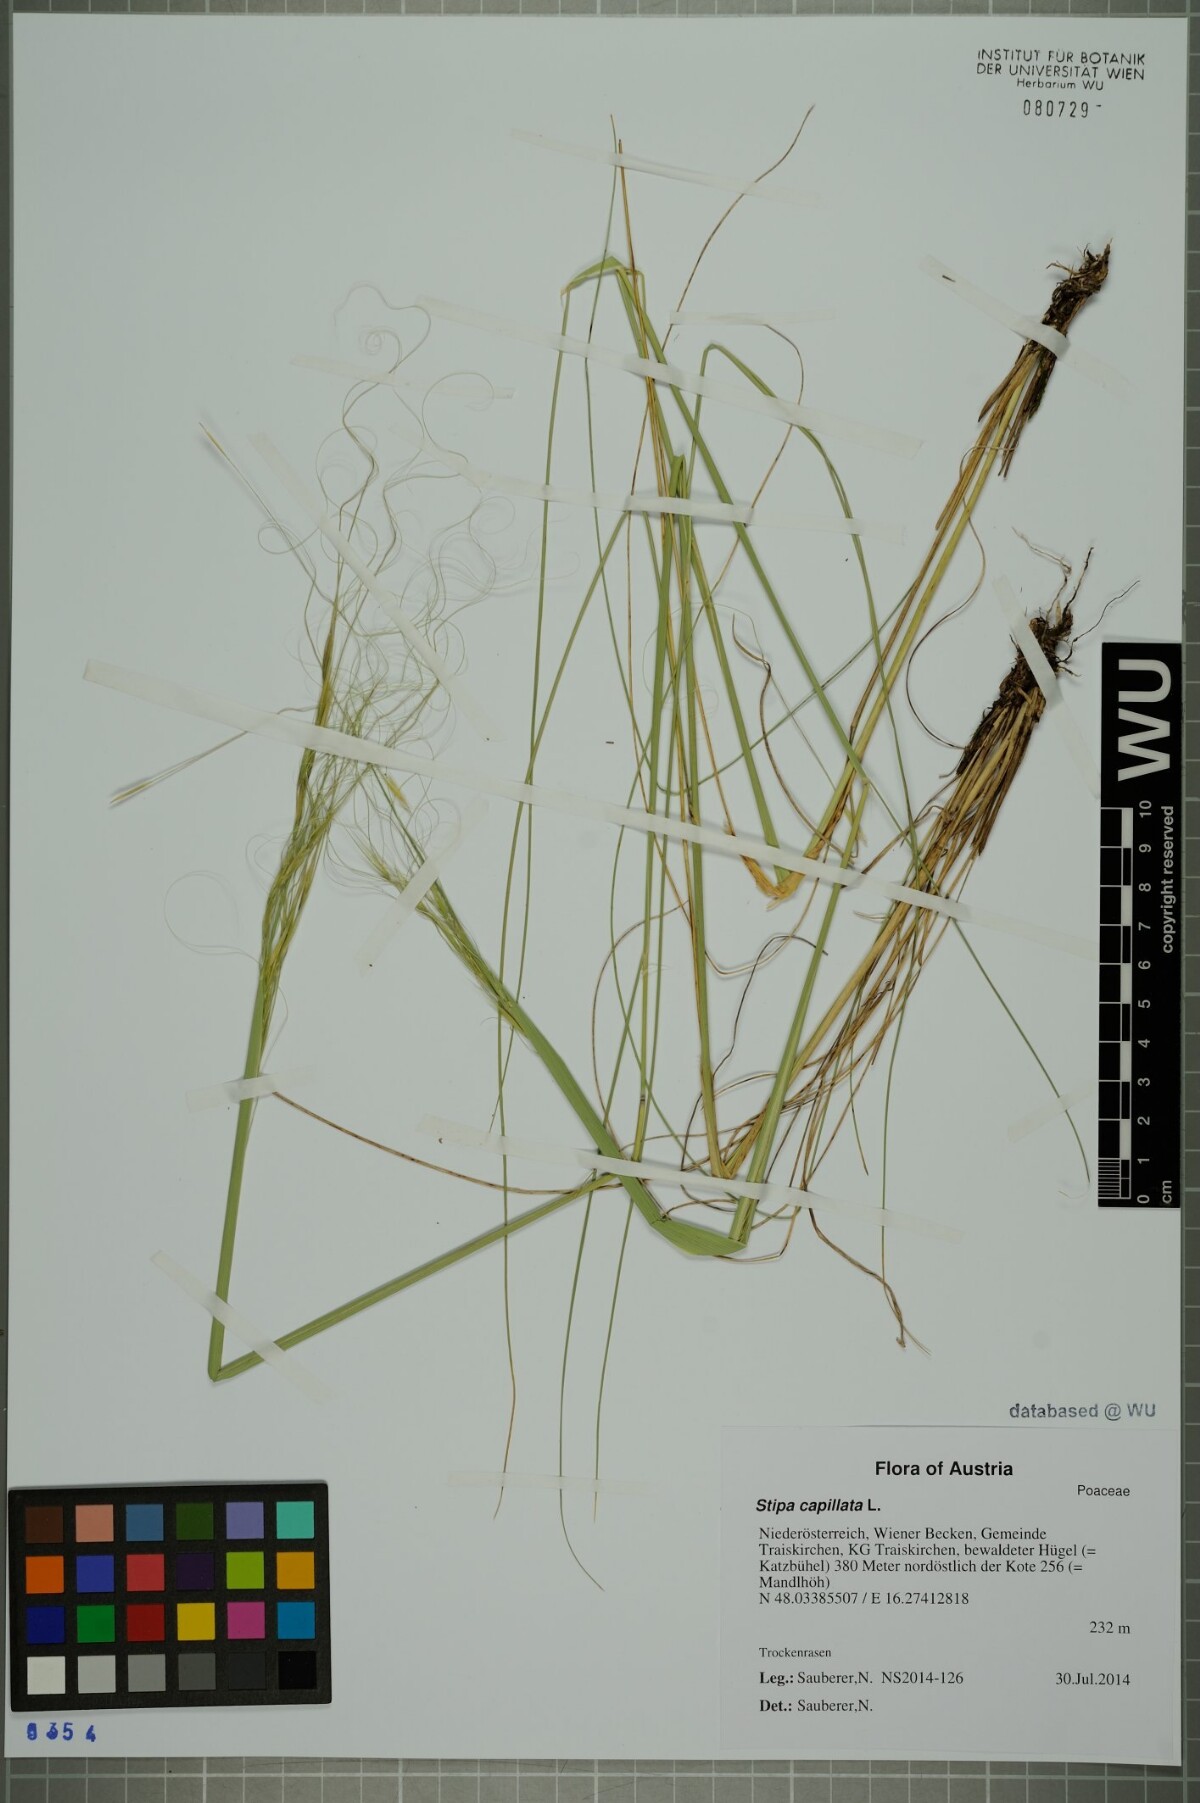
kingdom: Plantae
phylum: Tracheophyta
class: Liliopsida
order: Poales
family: Poaceae
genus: Stipa
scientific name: Stipa capillata
